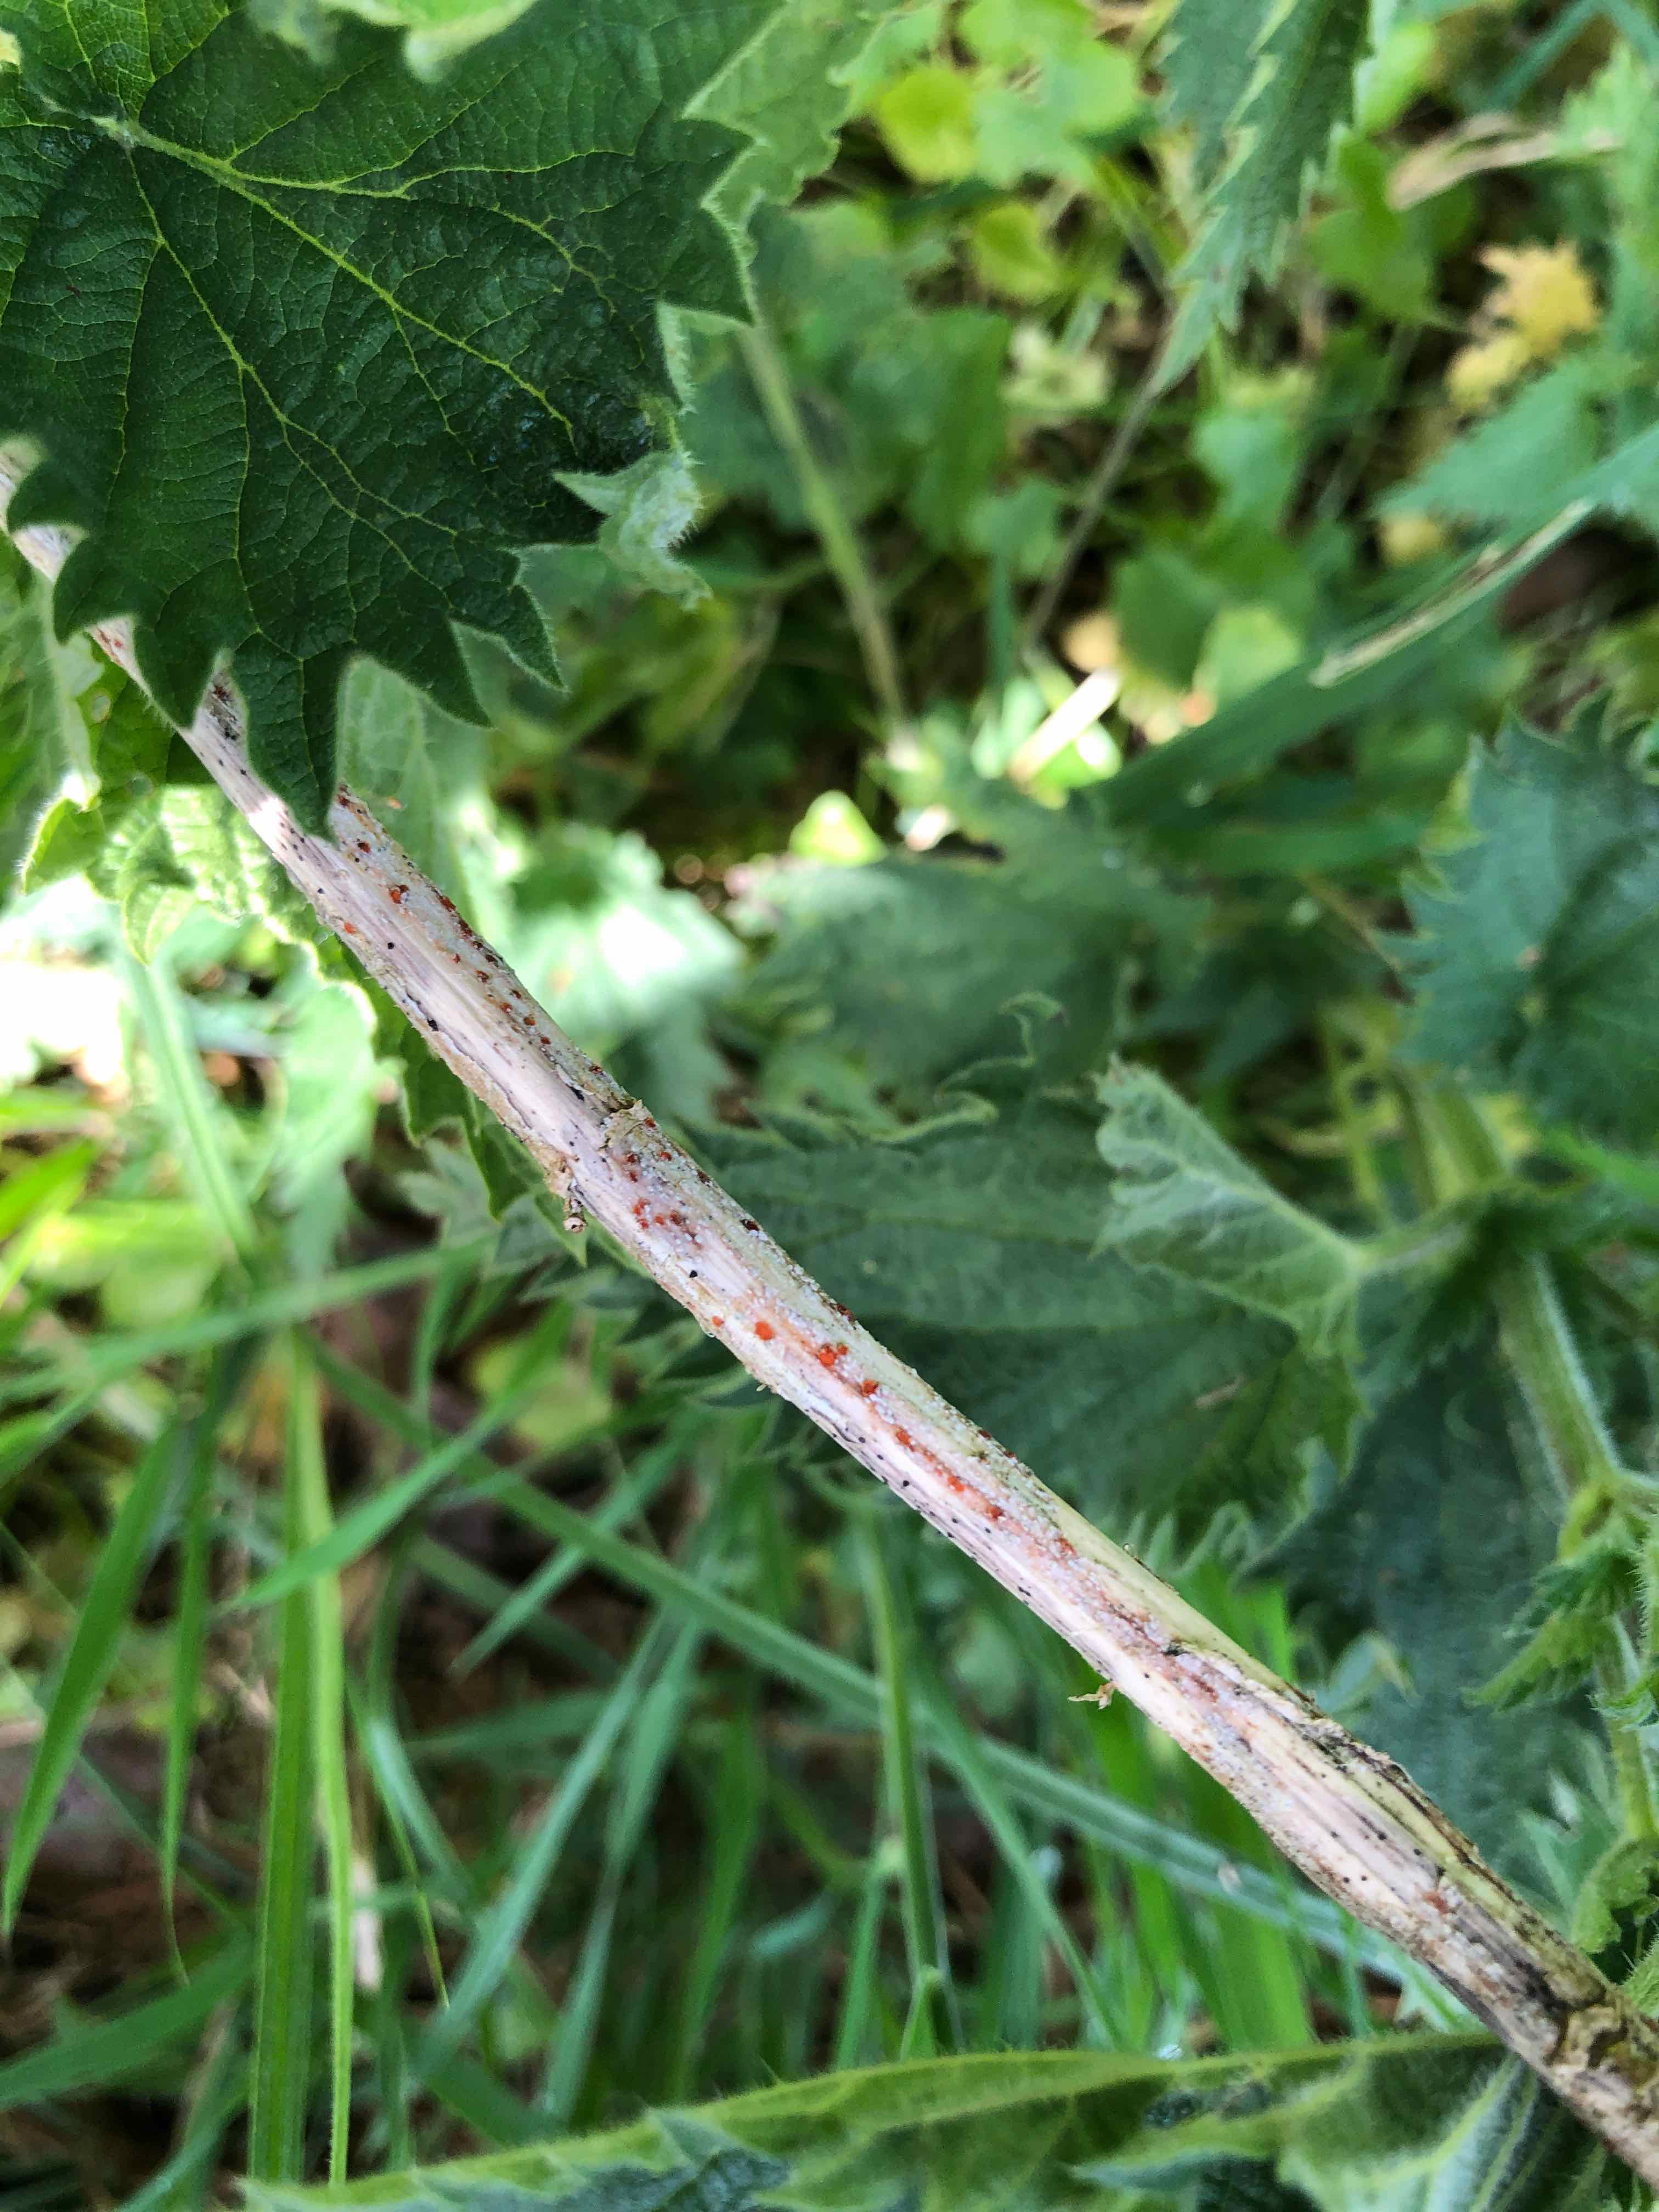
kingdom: Fungi
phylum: Ascomycota
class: Leotiomycetes
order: Helotiales
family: Calloriaceae
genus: Calloria
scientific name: Calloria urticae
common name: nælde-orangeskive
